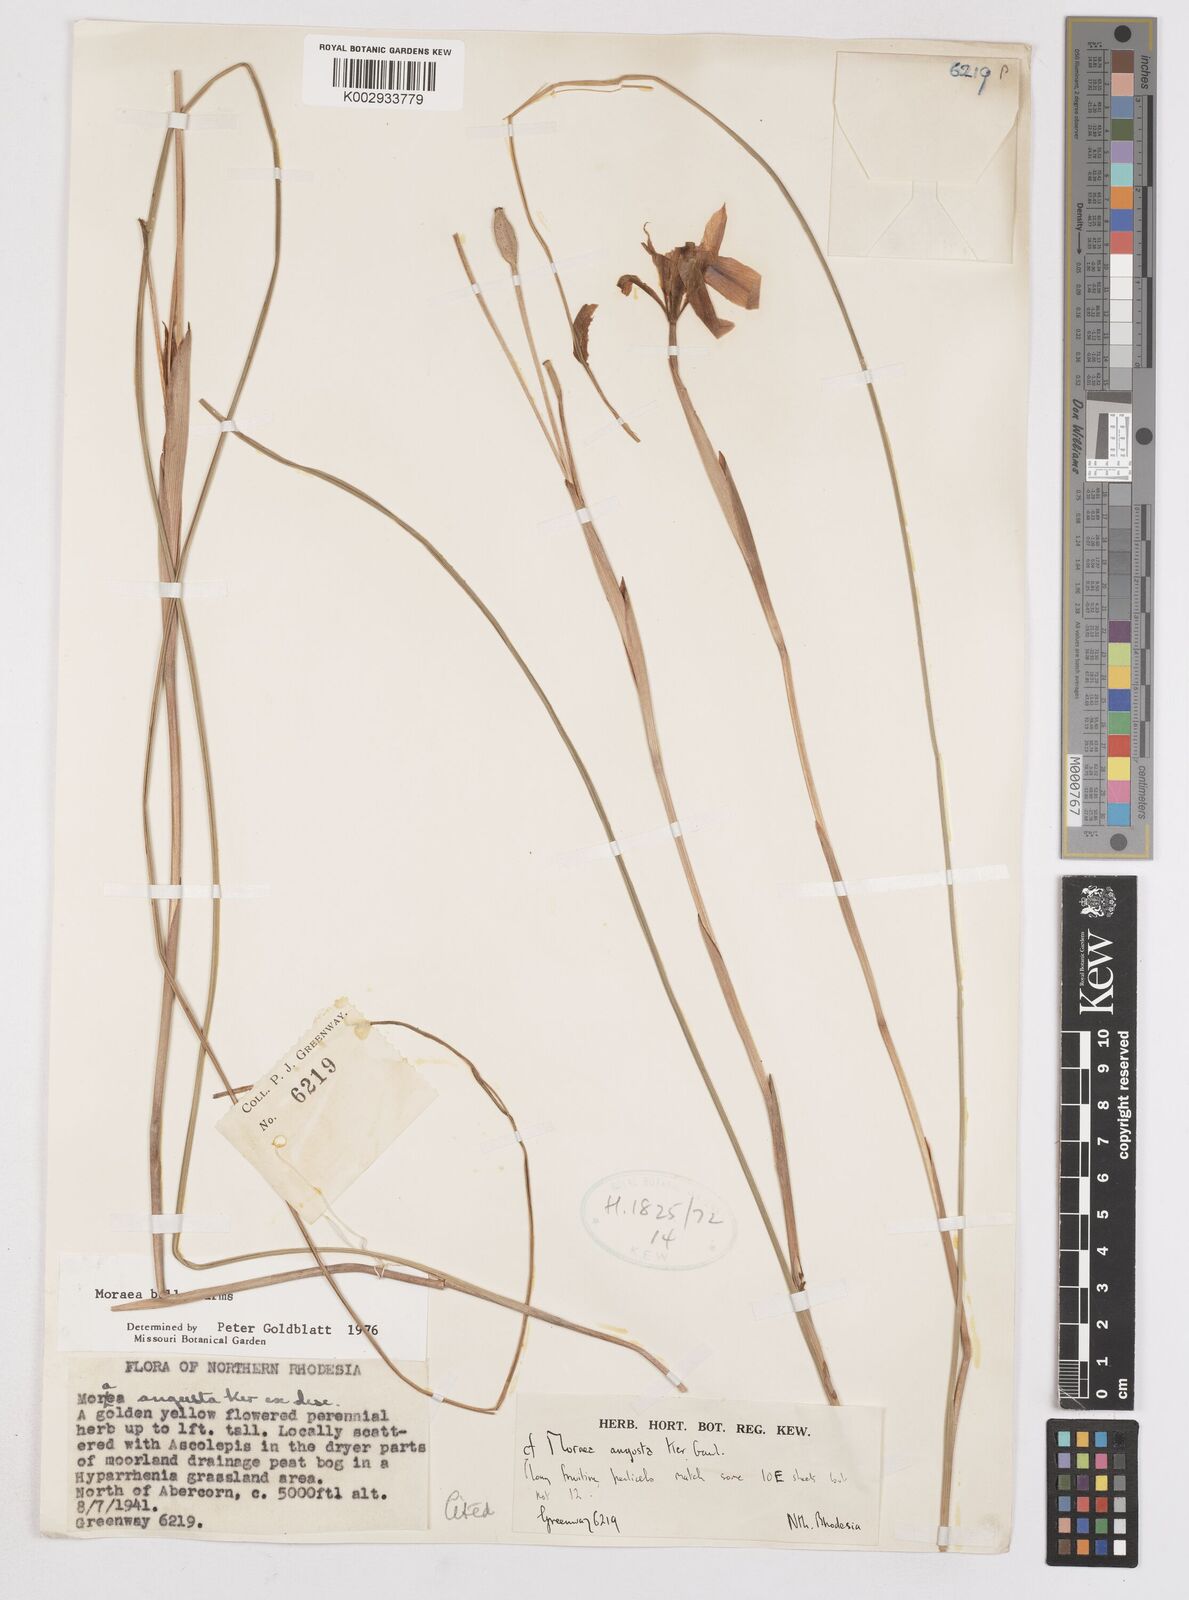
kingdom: Plantae
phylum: Tracheophyta
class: Liliopsida
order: Asparagales
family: Iridaceae
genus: Moraea
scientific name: Moraea bella
